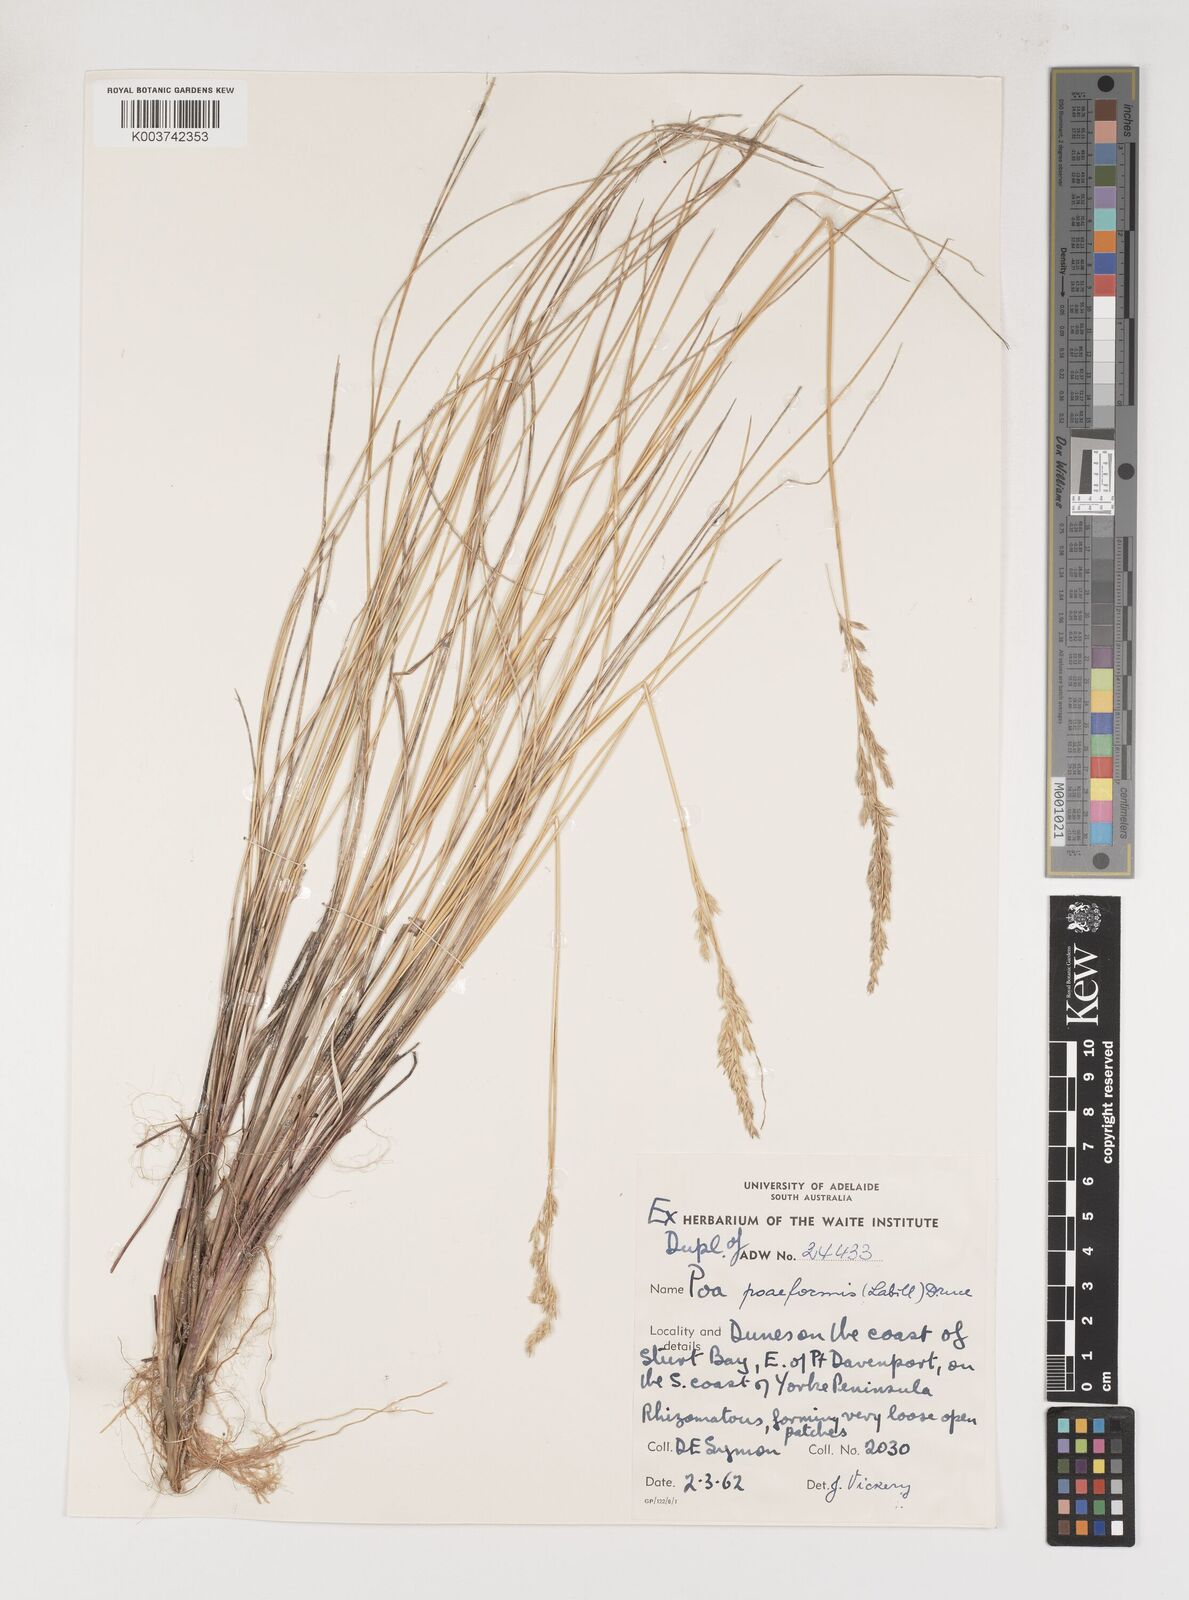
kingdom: Plantae
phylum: Tracheophyta
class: Liliopsida
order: Poales
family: Poaceae
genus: Poa
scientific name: Poa poiformis
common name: Tussock poa
